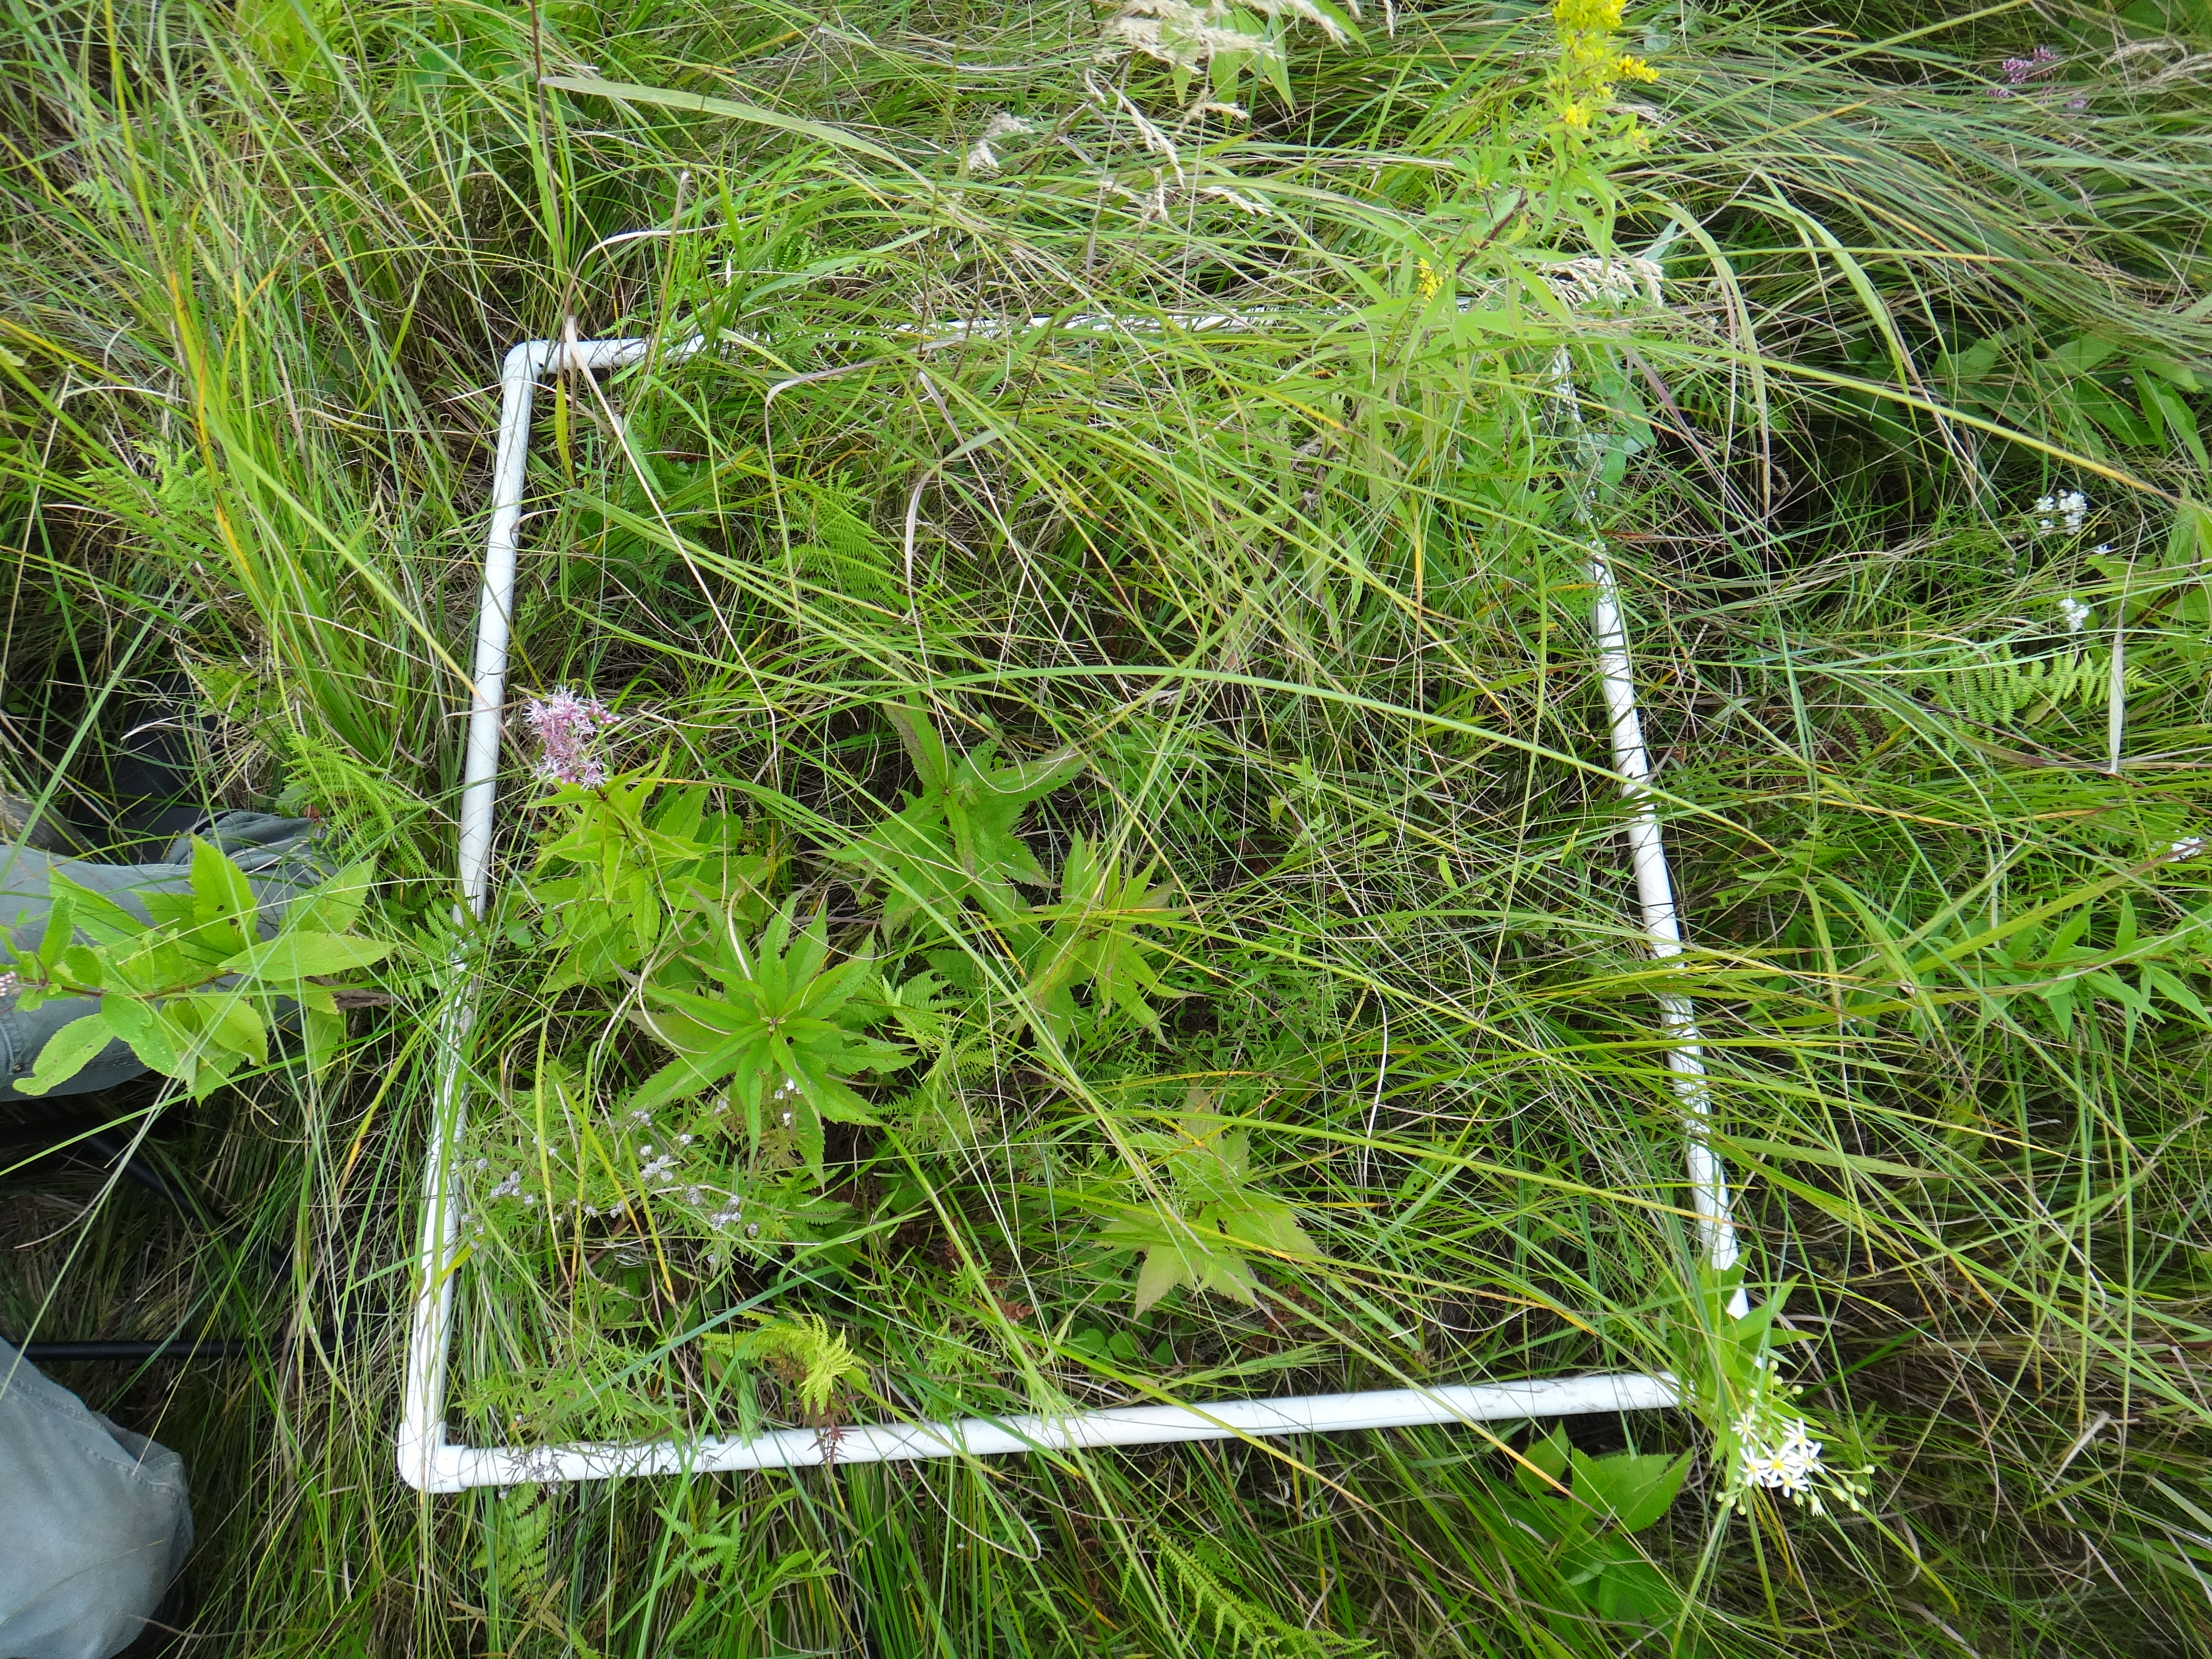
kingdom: Plantae
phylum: Tracheophyta
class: Magnoliopsida
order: Apiales
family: Apiaceae
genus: Oxypolis
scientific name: Oxypolis rigidior
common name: Cowbane
